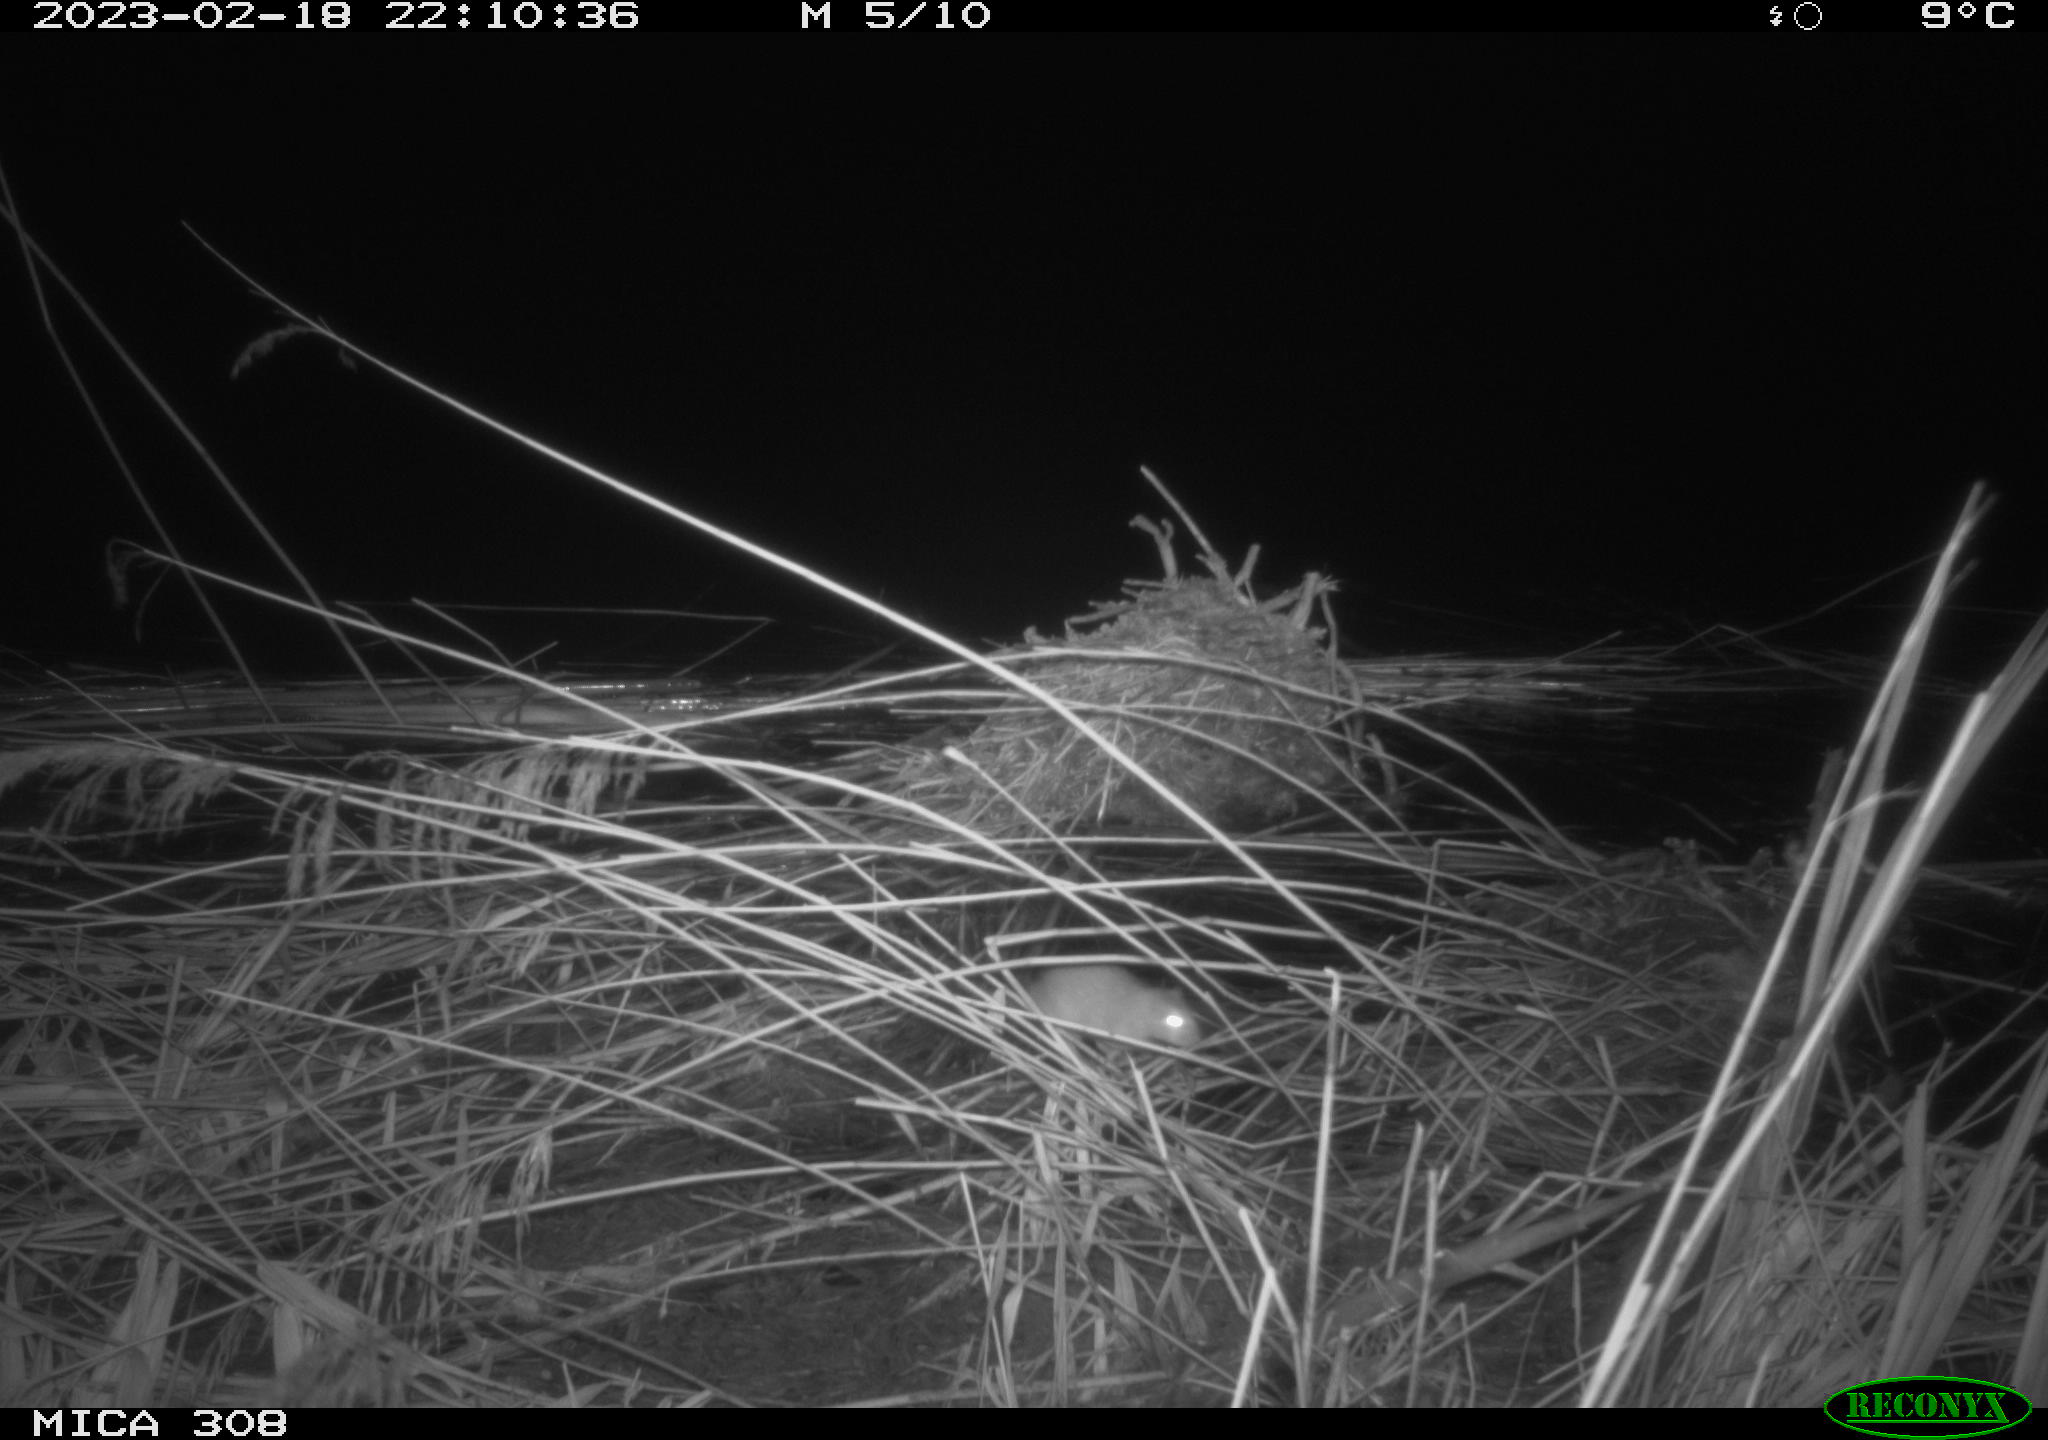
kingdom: Animalia
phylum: Chordata
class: Mammalia
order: Rodentia
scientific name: Rodentia
